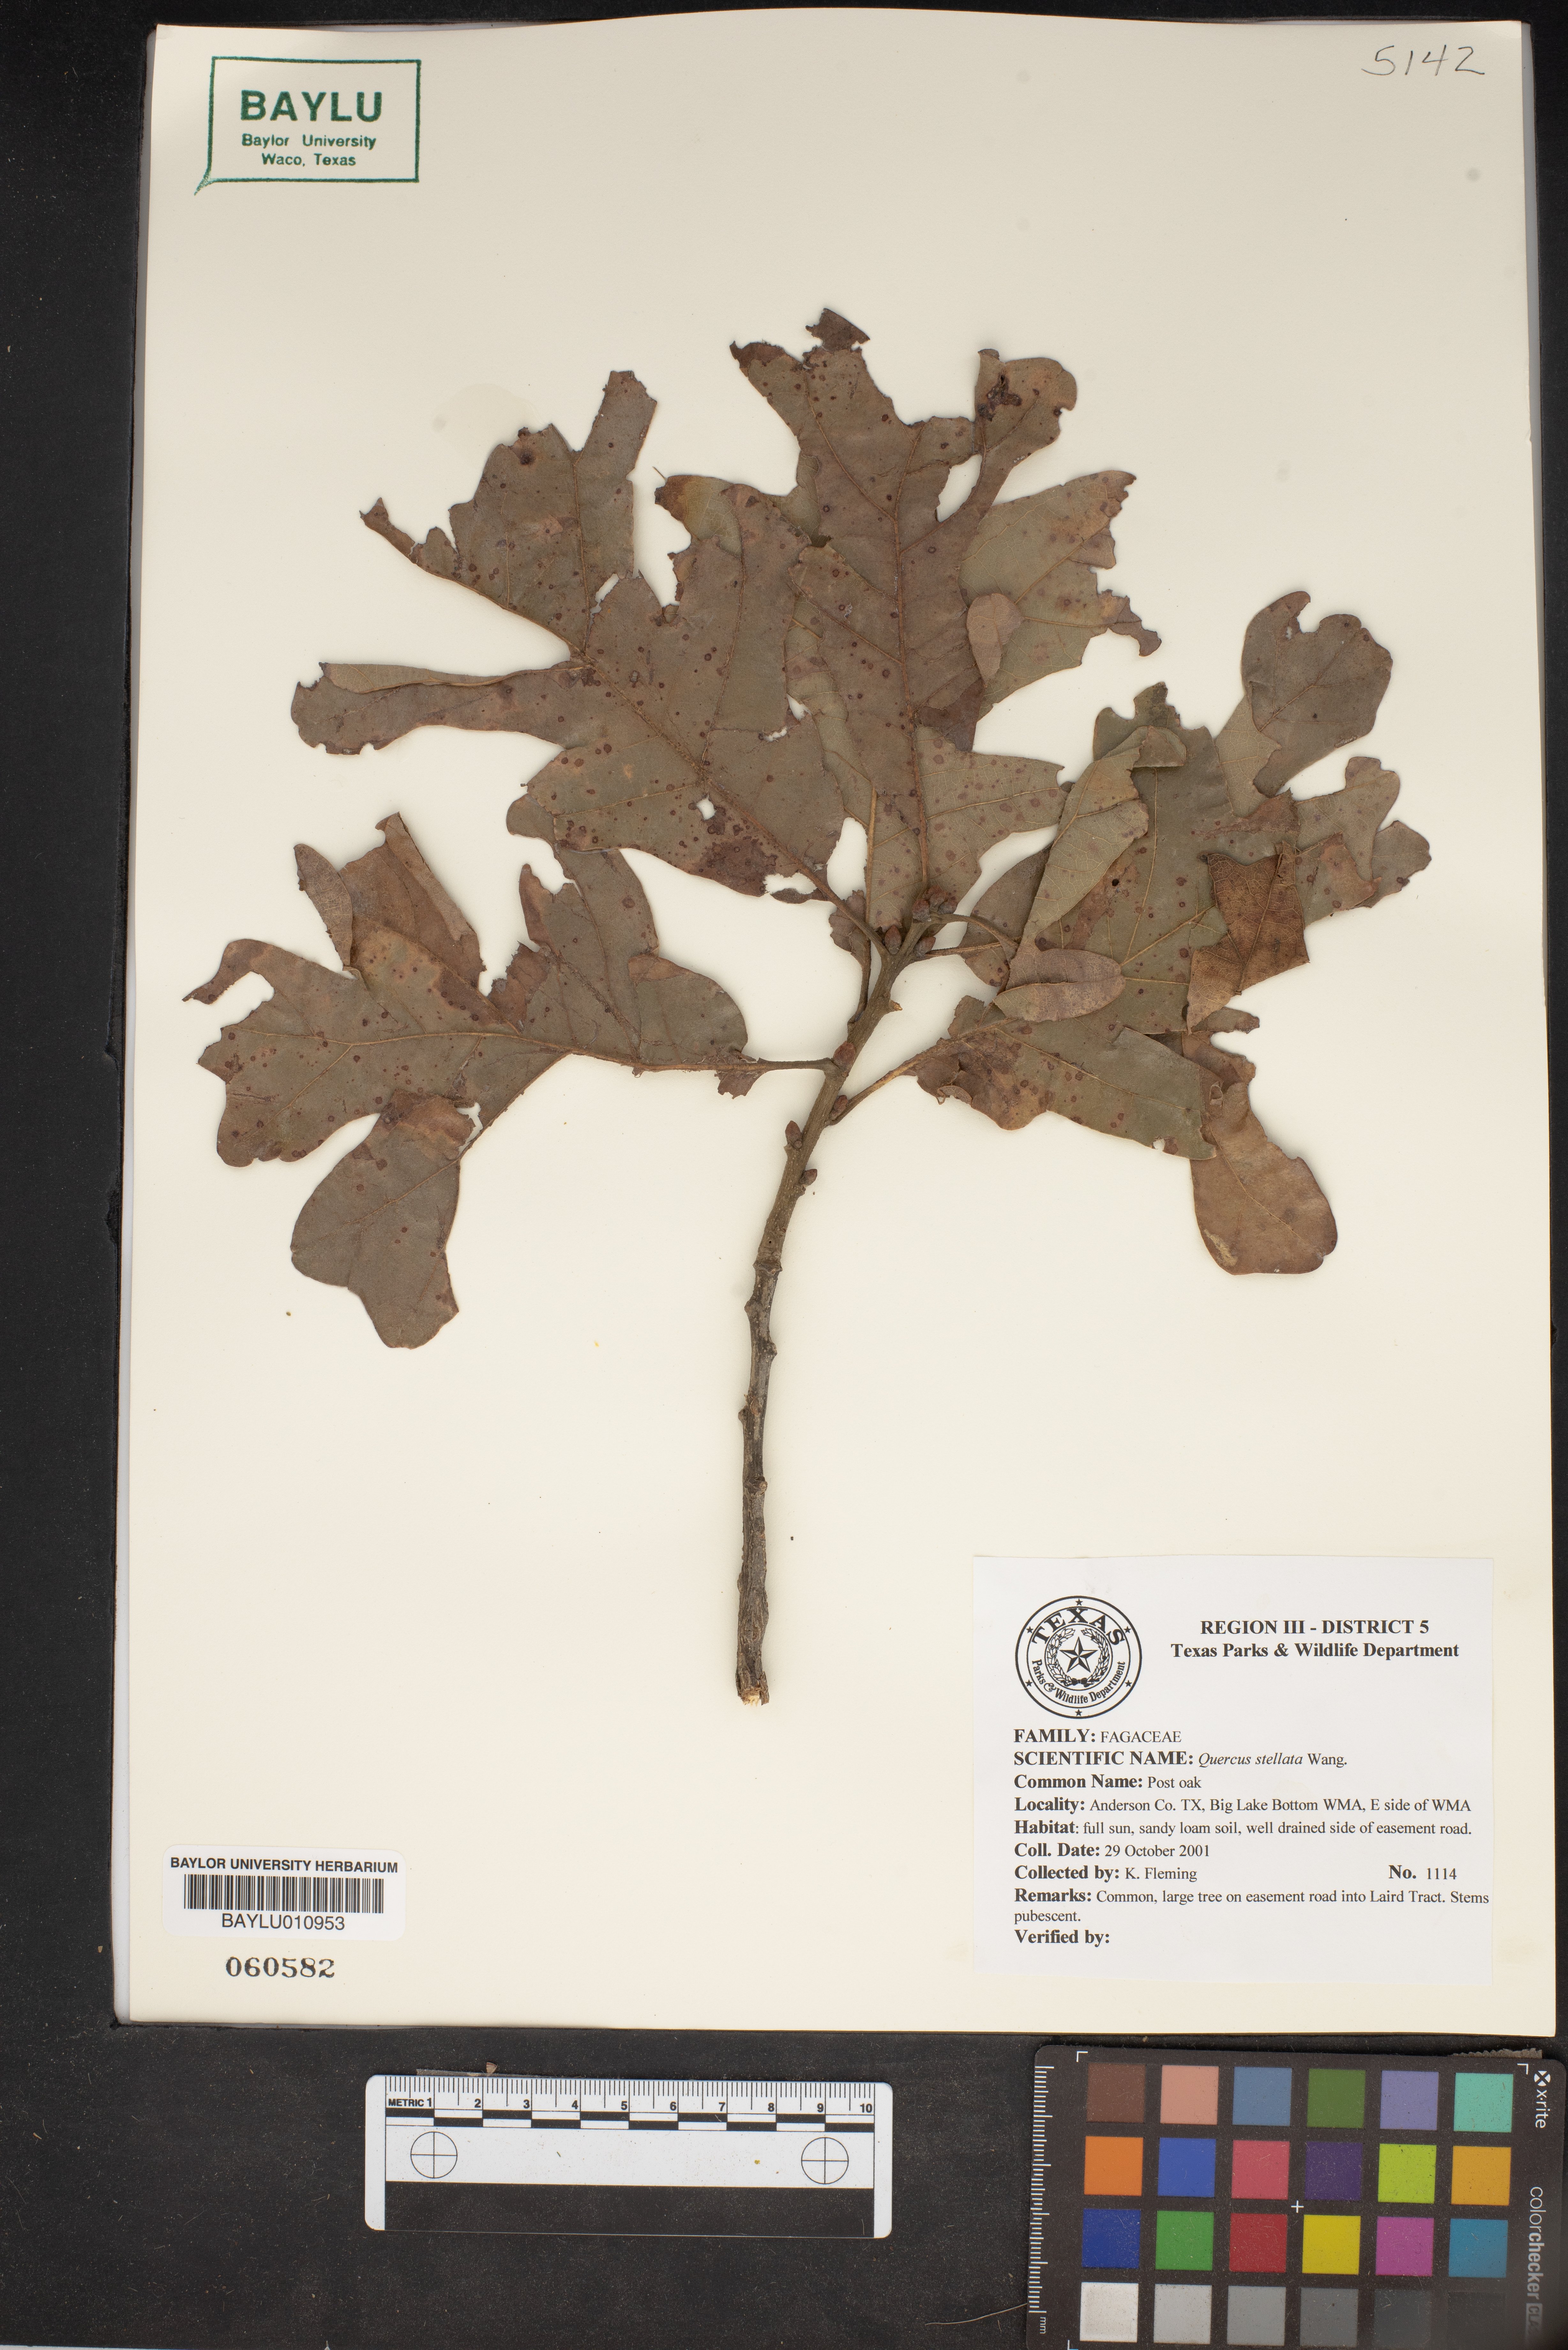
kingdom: Plantae
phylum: Tracheophyta
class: Magnoliopsida
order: Fagales
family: Fagaceae
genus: Quercus
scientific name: Quercus stellata
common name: Post oak
